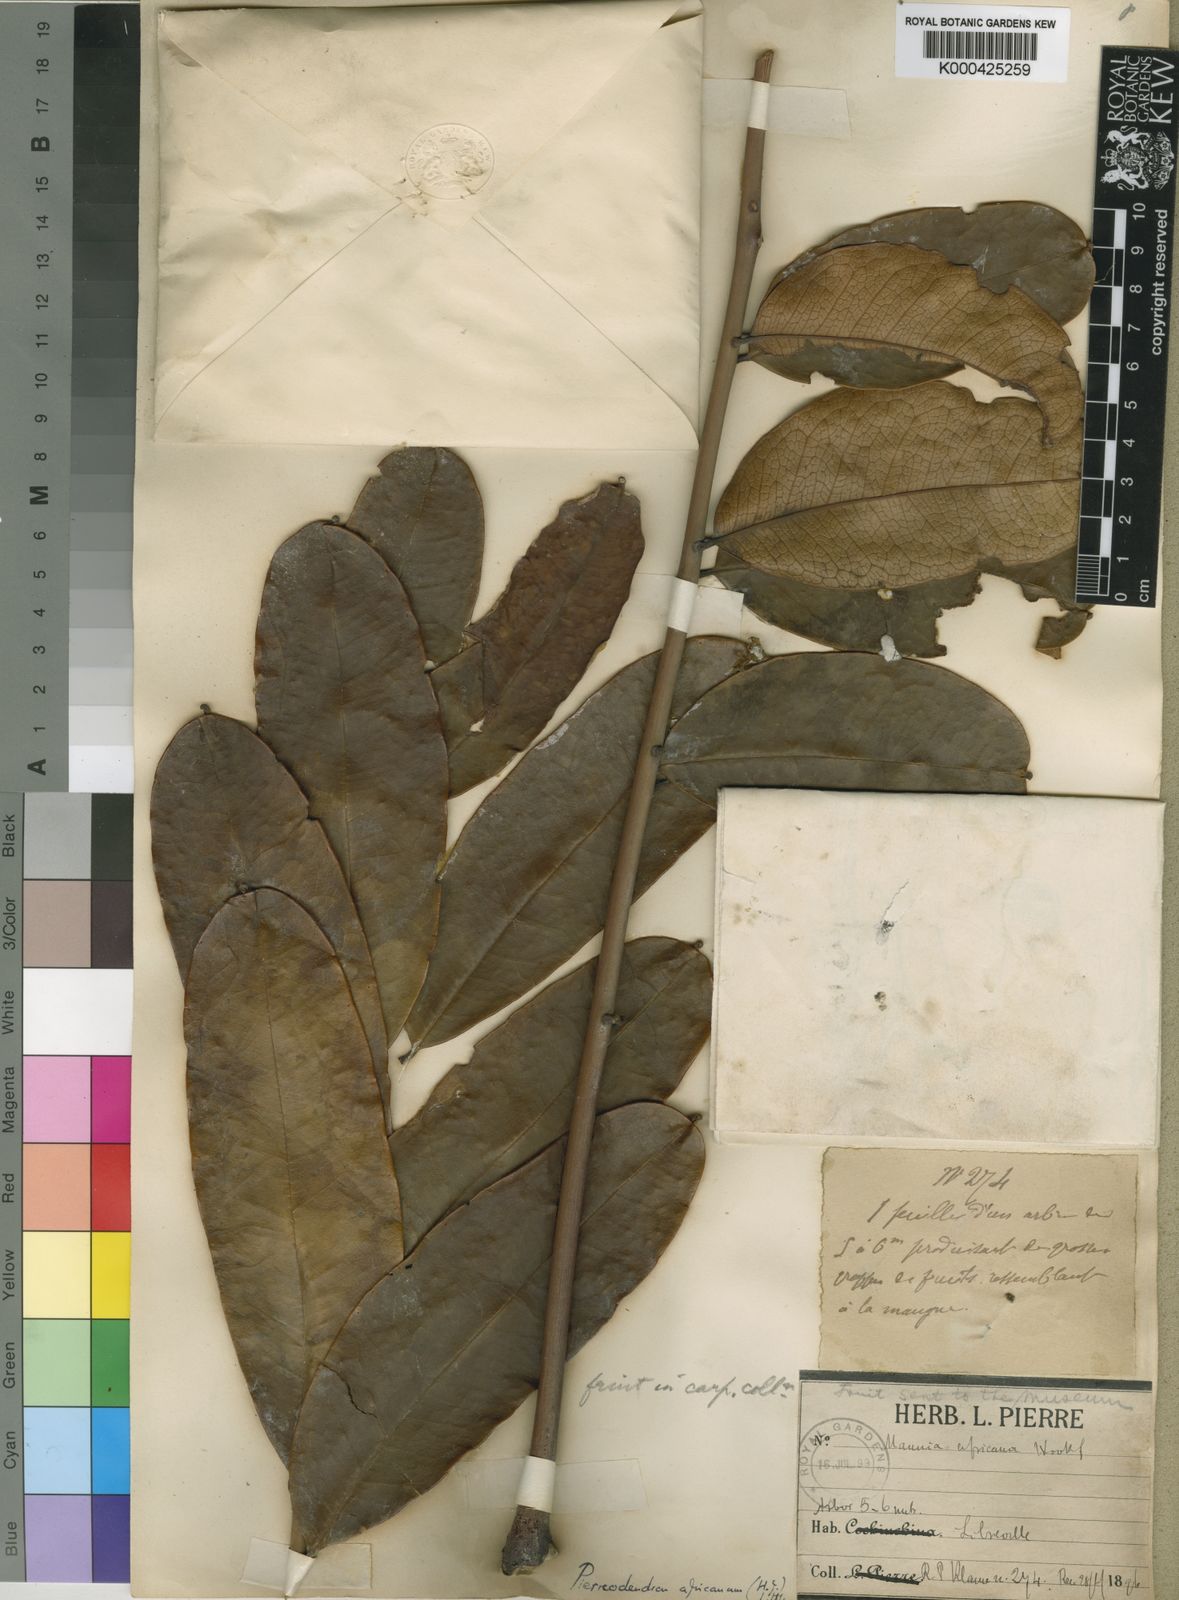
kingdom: Plantae
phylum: Tracheophyta
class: Magnoliopsida
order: Sapindales
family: Simaroubaceae
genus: Simaba
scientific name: Simaba grandifolia
